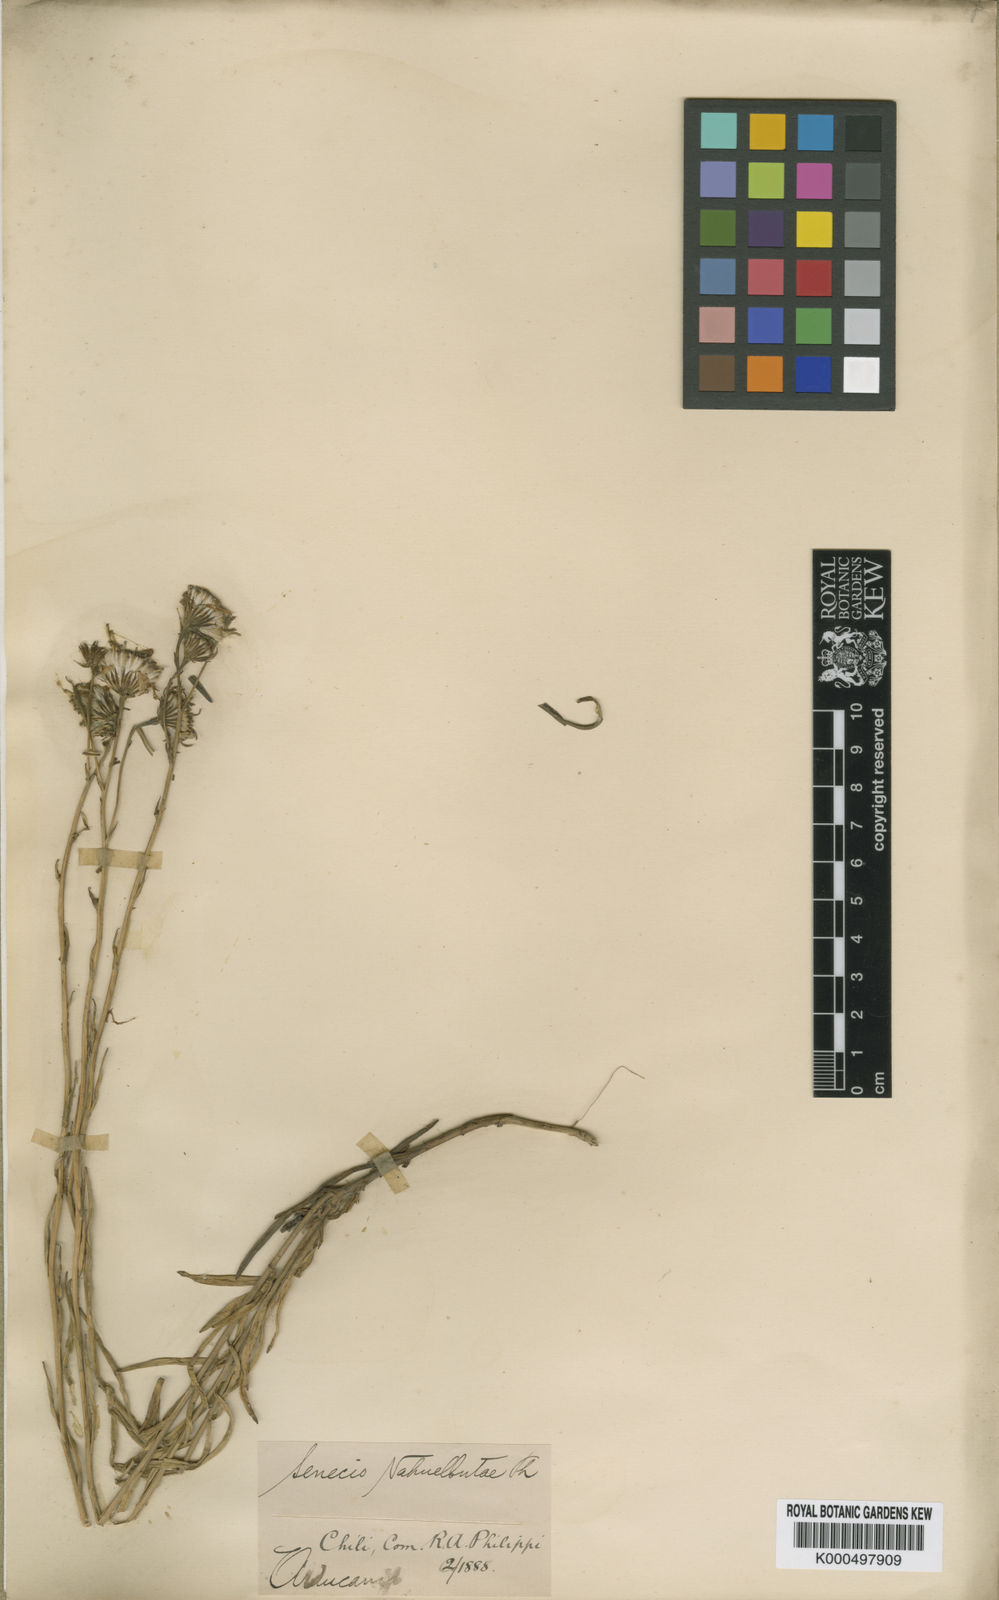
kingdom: Plantae
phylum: Tracheophyta
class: Magnoliopsida
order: Asterales
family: Asteraceae
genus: Senecio
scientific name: Senecio angustissimus
